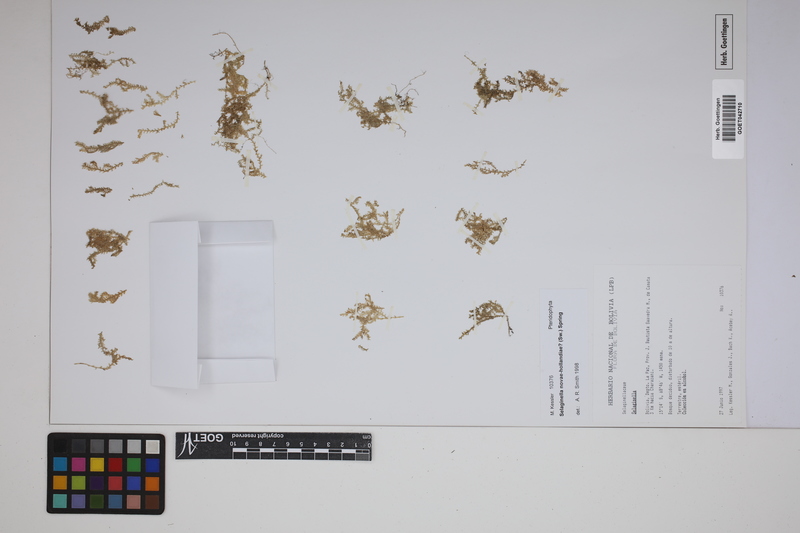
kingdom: Plantae
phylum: Tracheophyta
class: Lycopodiopsida
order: Selaginellales
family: Selaginellaceae
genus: Selaginella
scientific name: Selaginella novae-hollandiae
